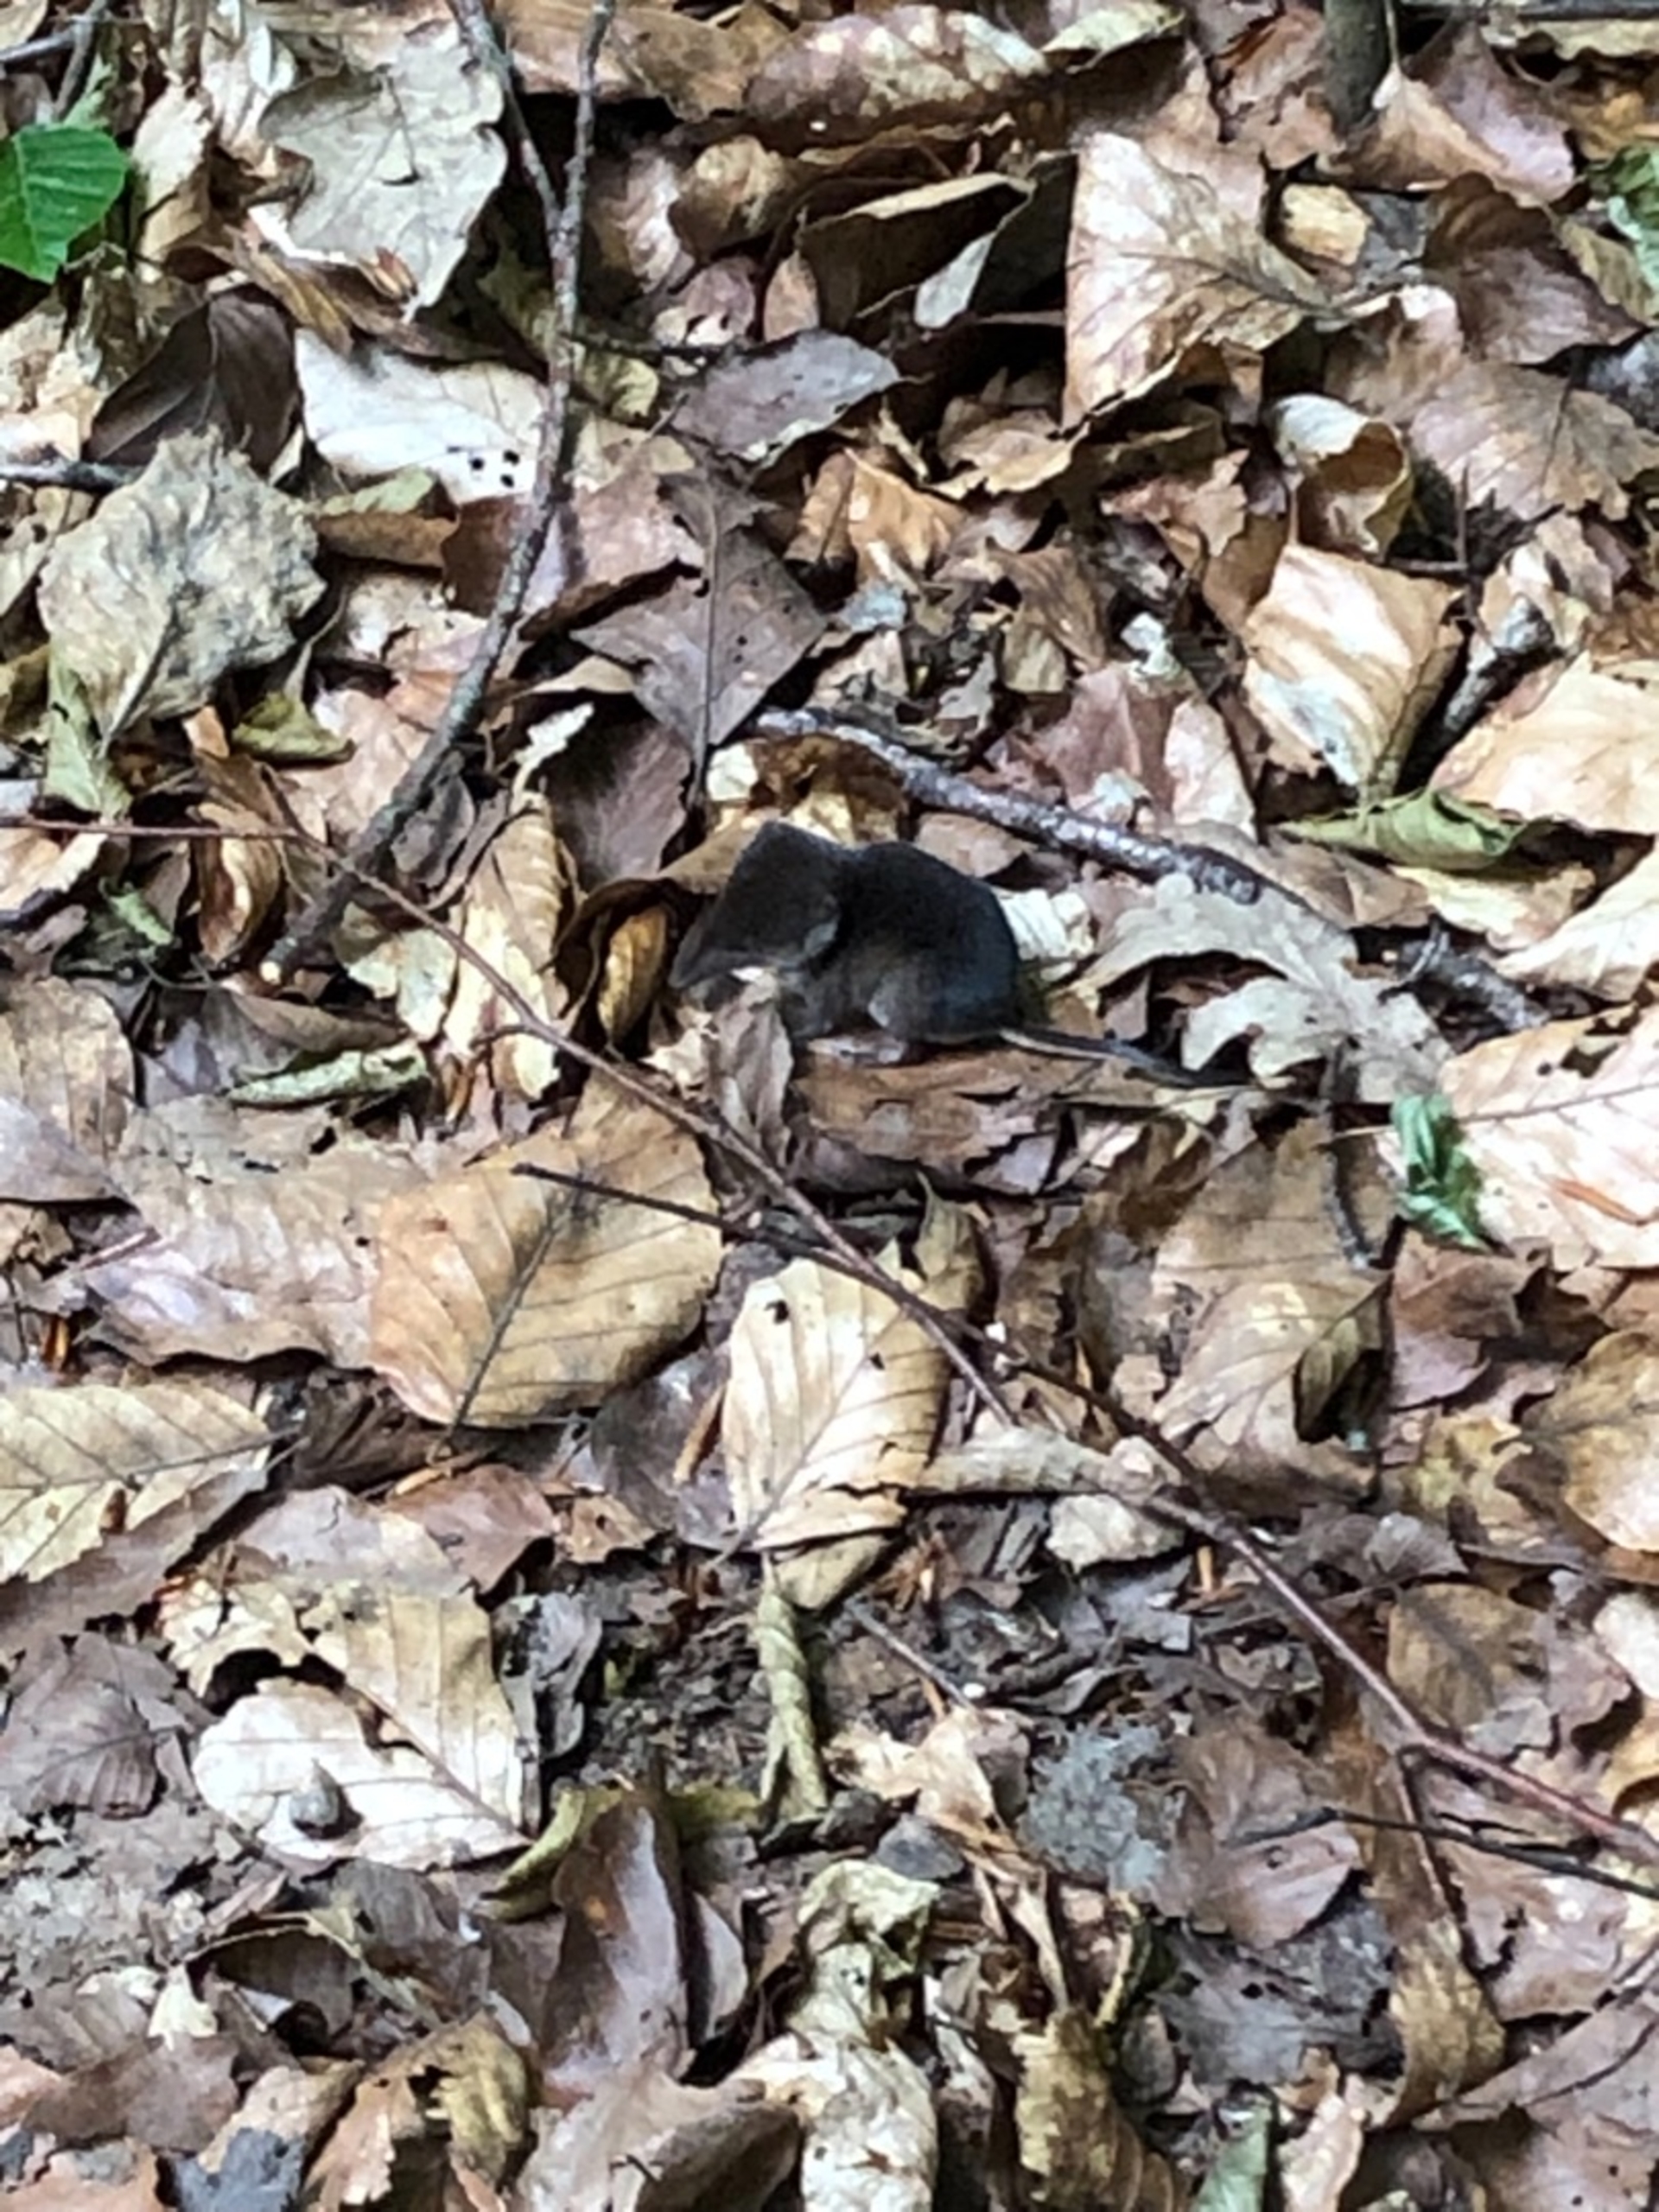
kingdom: Animalia
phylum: Chordata
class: Mammalia
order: Soricomorpha
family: Soricidae
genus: Sorex
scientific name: Sorex araneus
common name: Almindelig spidsmus
